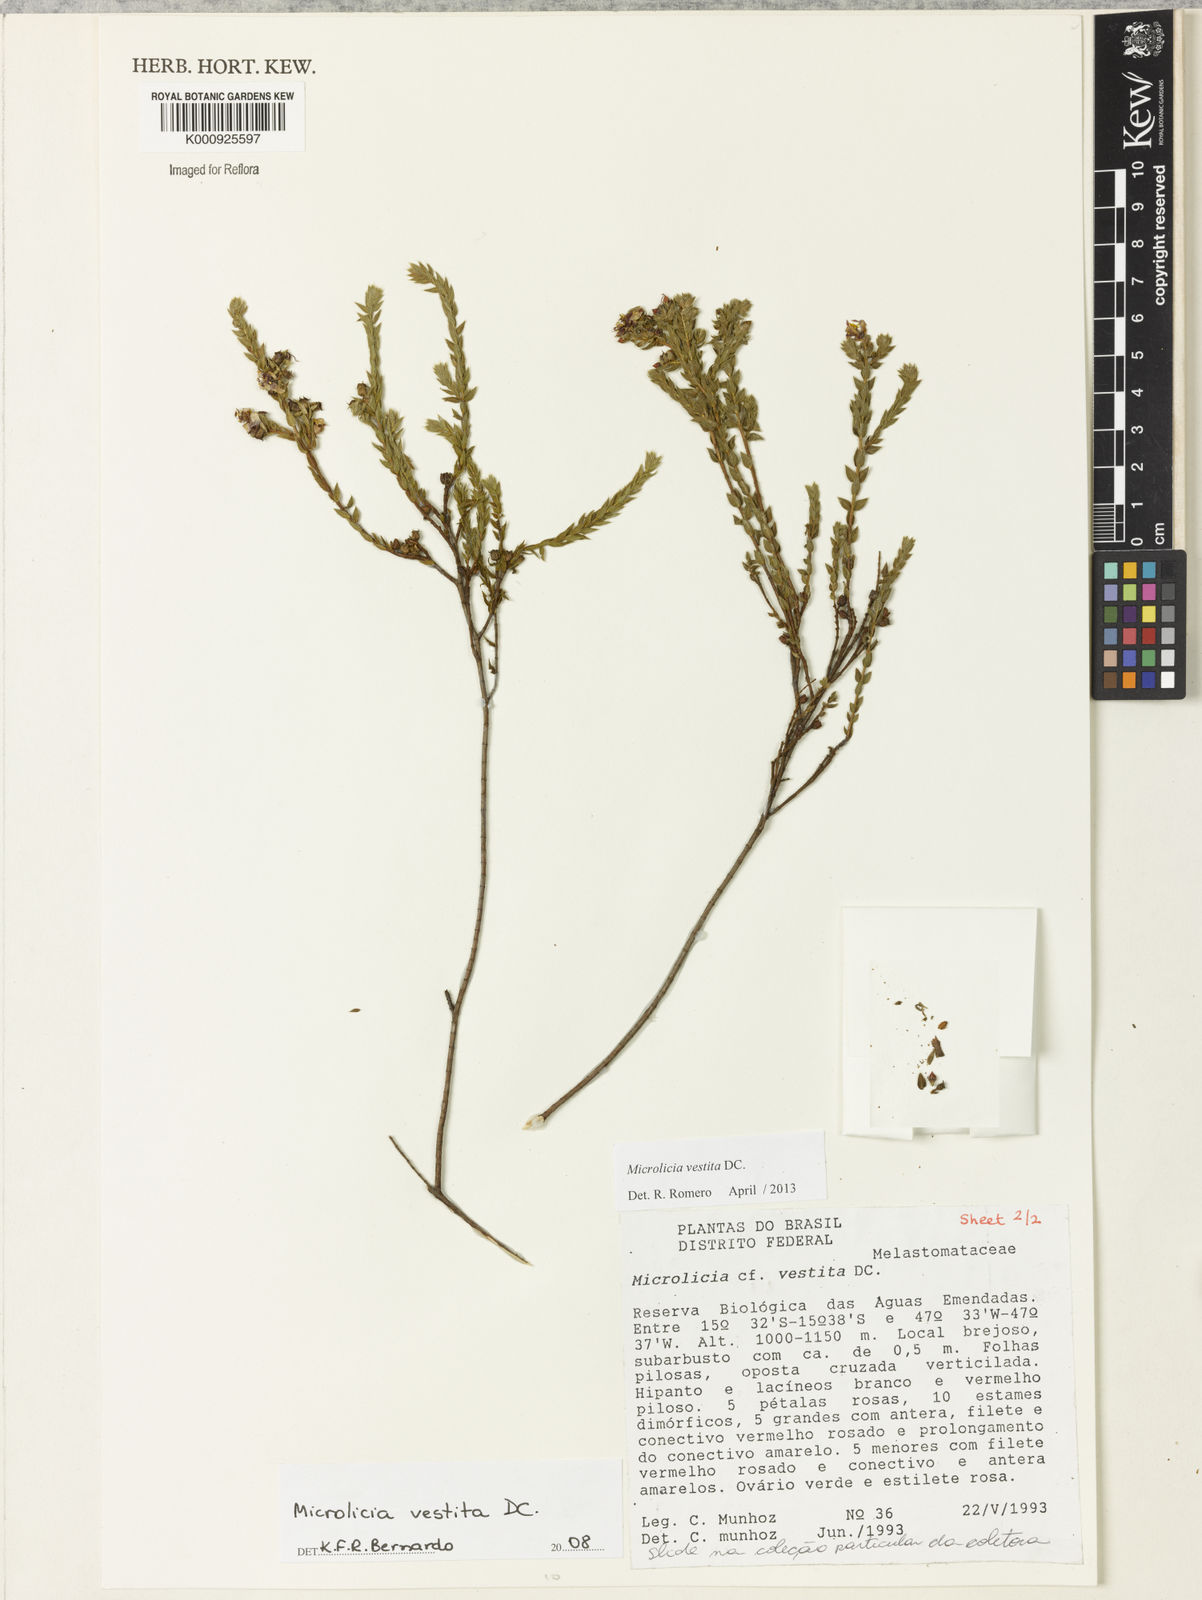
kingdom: Plantae
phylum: Tracheophyta
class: Magnoliopsida
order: Myrtales
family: Melastomataceae
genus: Microlicia
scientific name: Microlicia vestita
